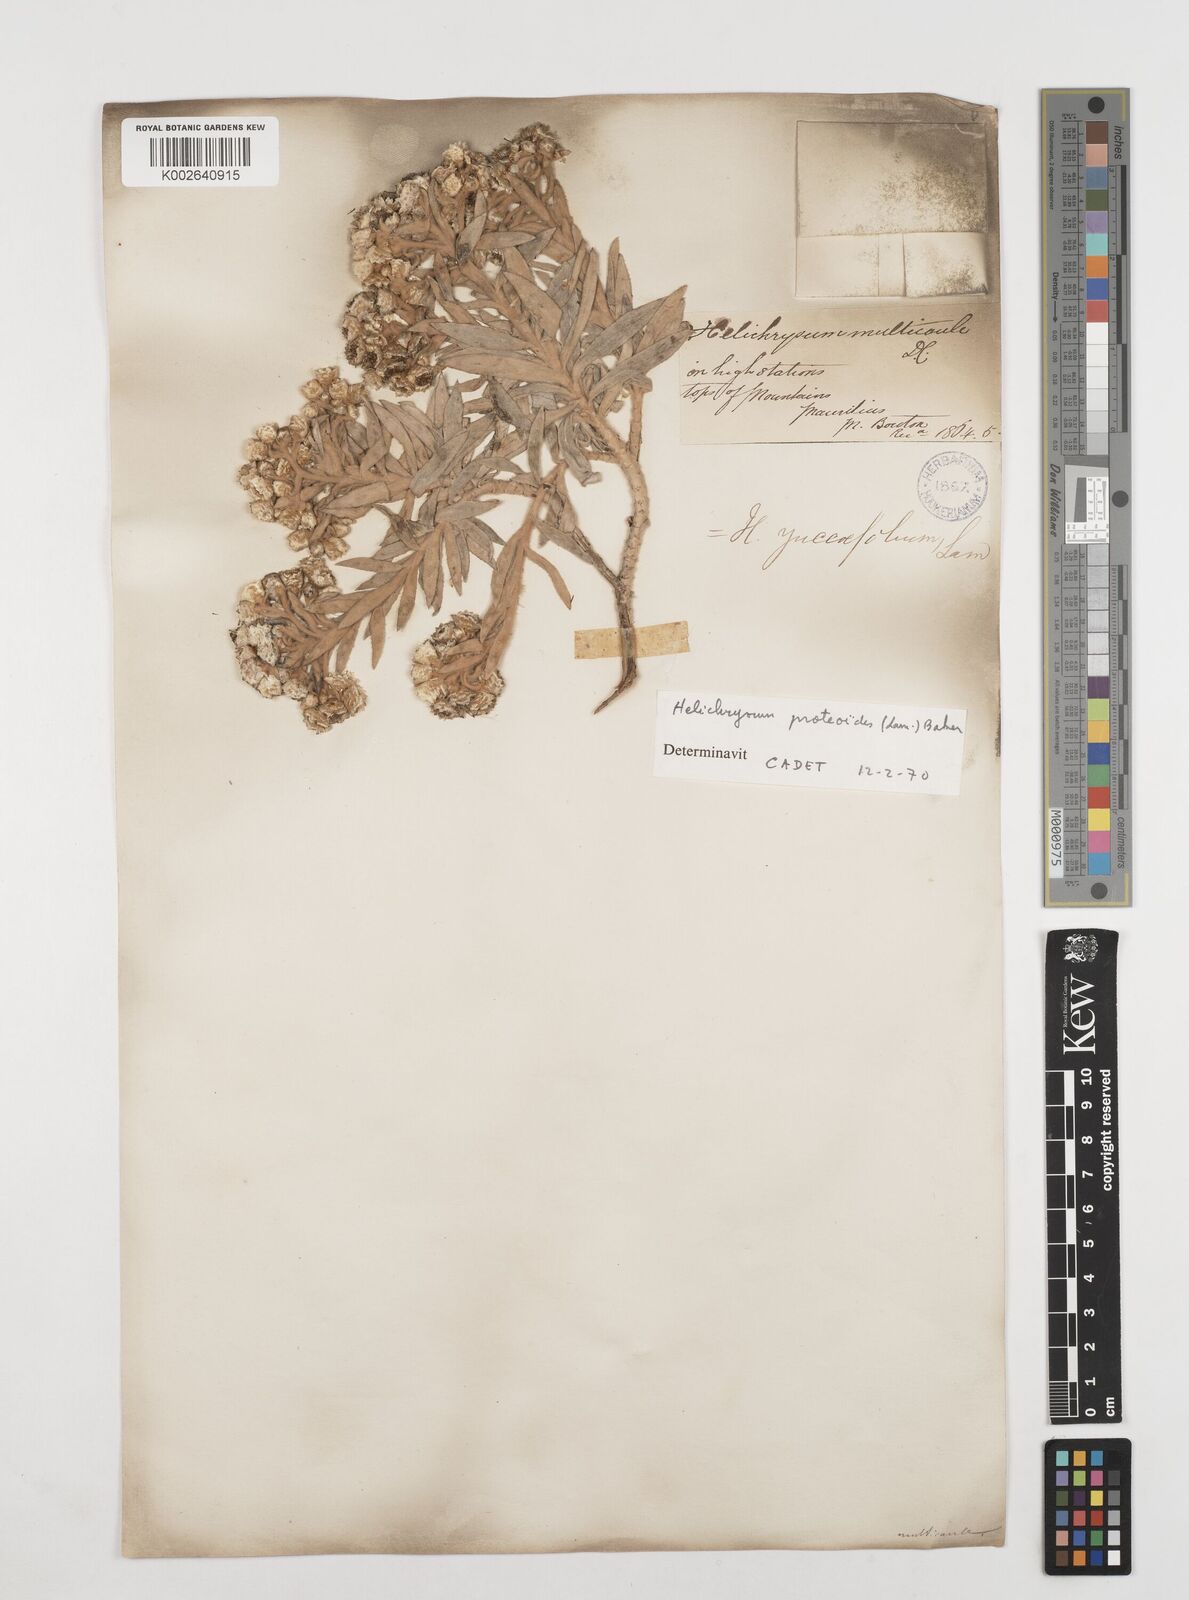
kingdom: Plantae
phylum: Tracheophyta
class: Magnoliopsida
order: Asterales
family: Asteraceae
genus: Helichrysum
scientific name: Helichrysum proteoides
